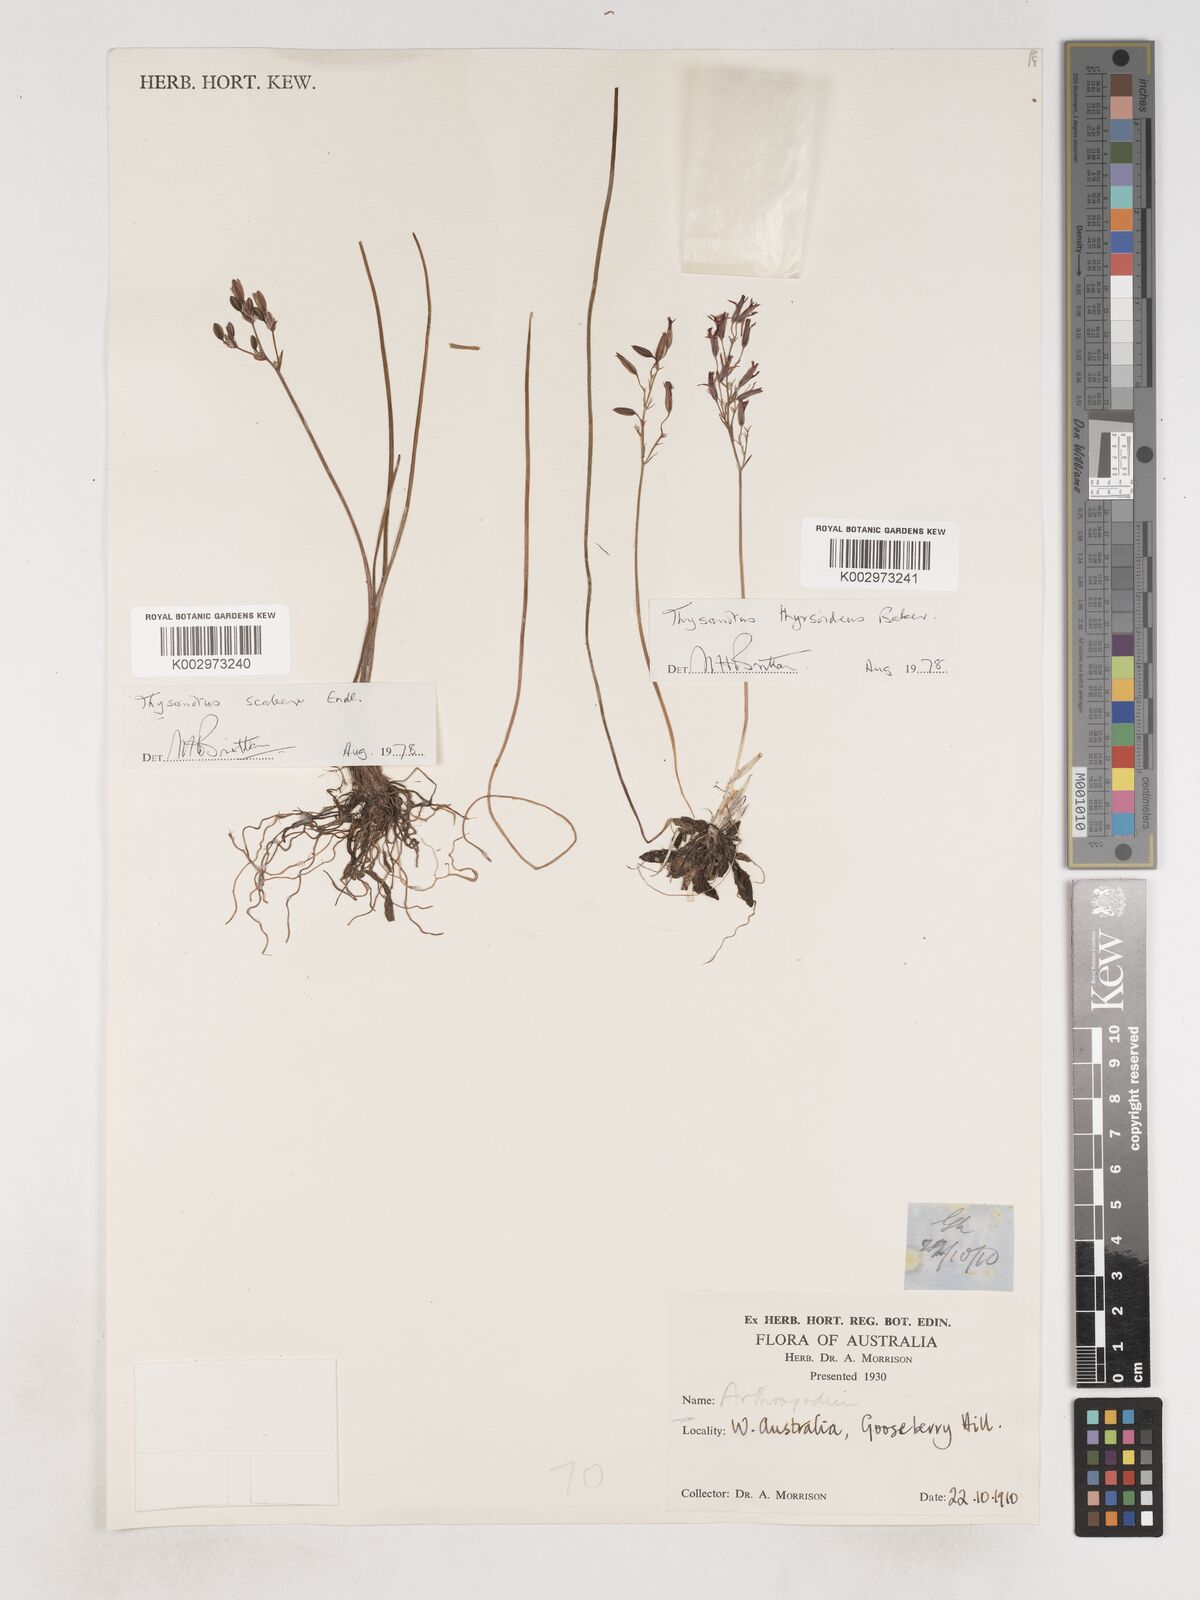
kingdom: Plantae
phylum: Tracheophyta
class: Liliopsida
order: Asparagales
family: Asparagaceae
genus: Thysanotus
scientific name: Thysanotus scaber
